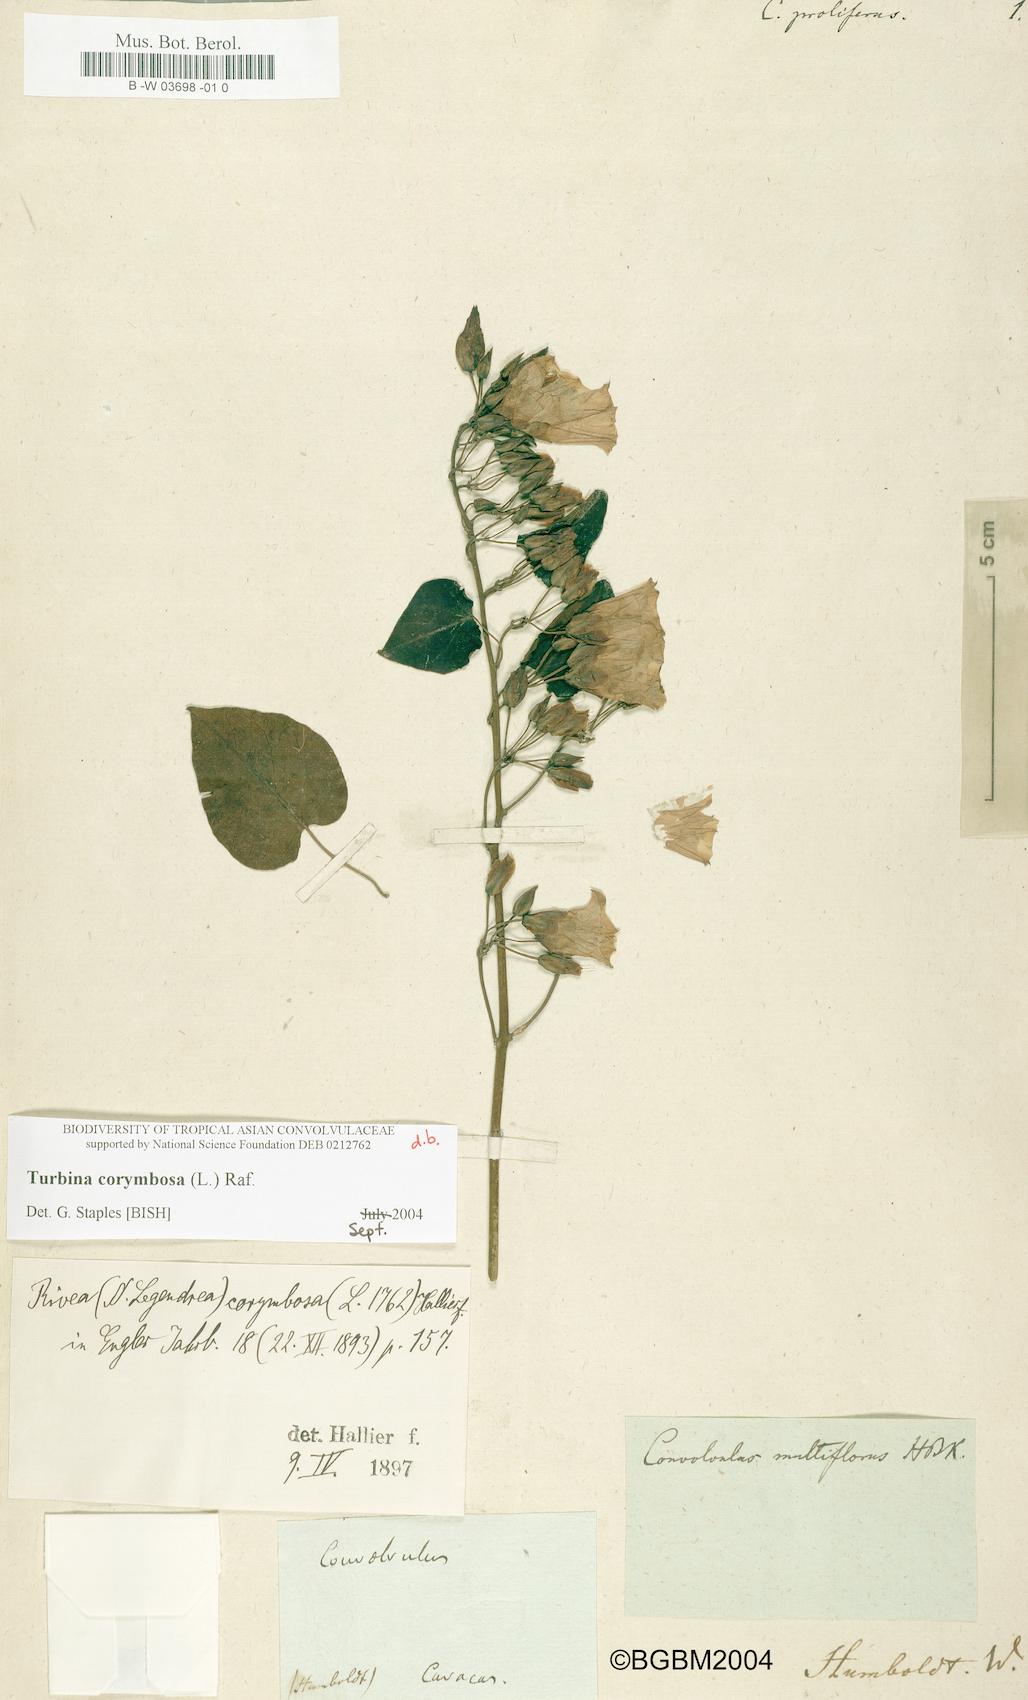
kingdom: Plantae
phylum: Tracheophyta
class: Magnoliopsida
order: Solanales
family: Convolvulaceae
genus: Ipomoea
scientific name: Ipomoea corymbosa
